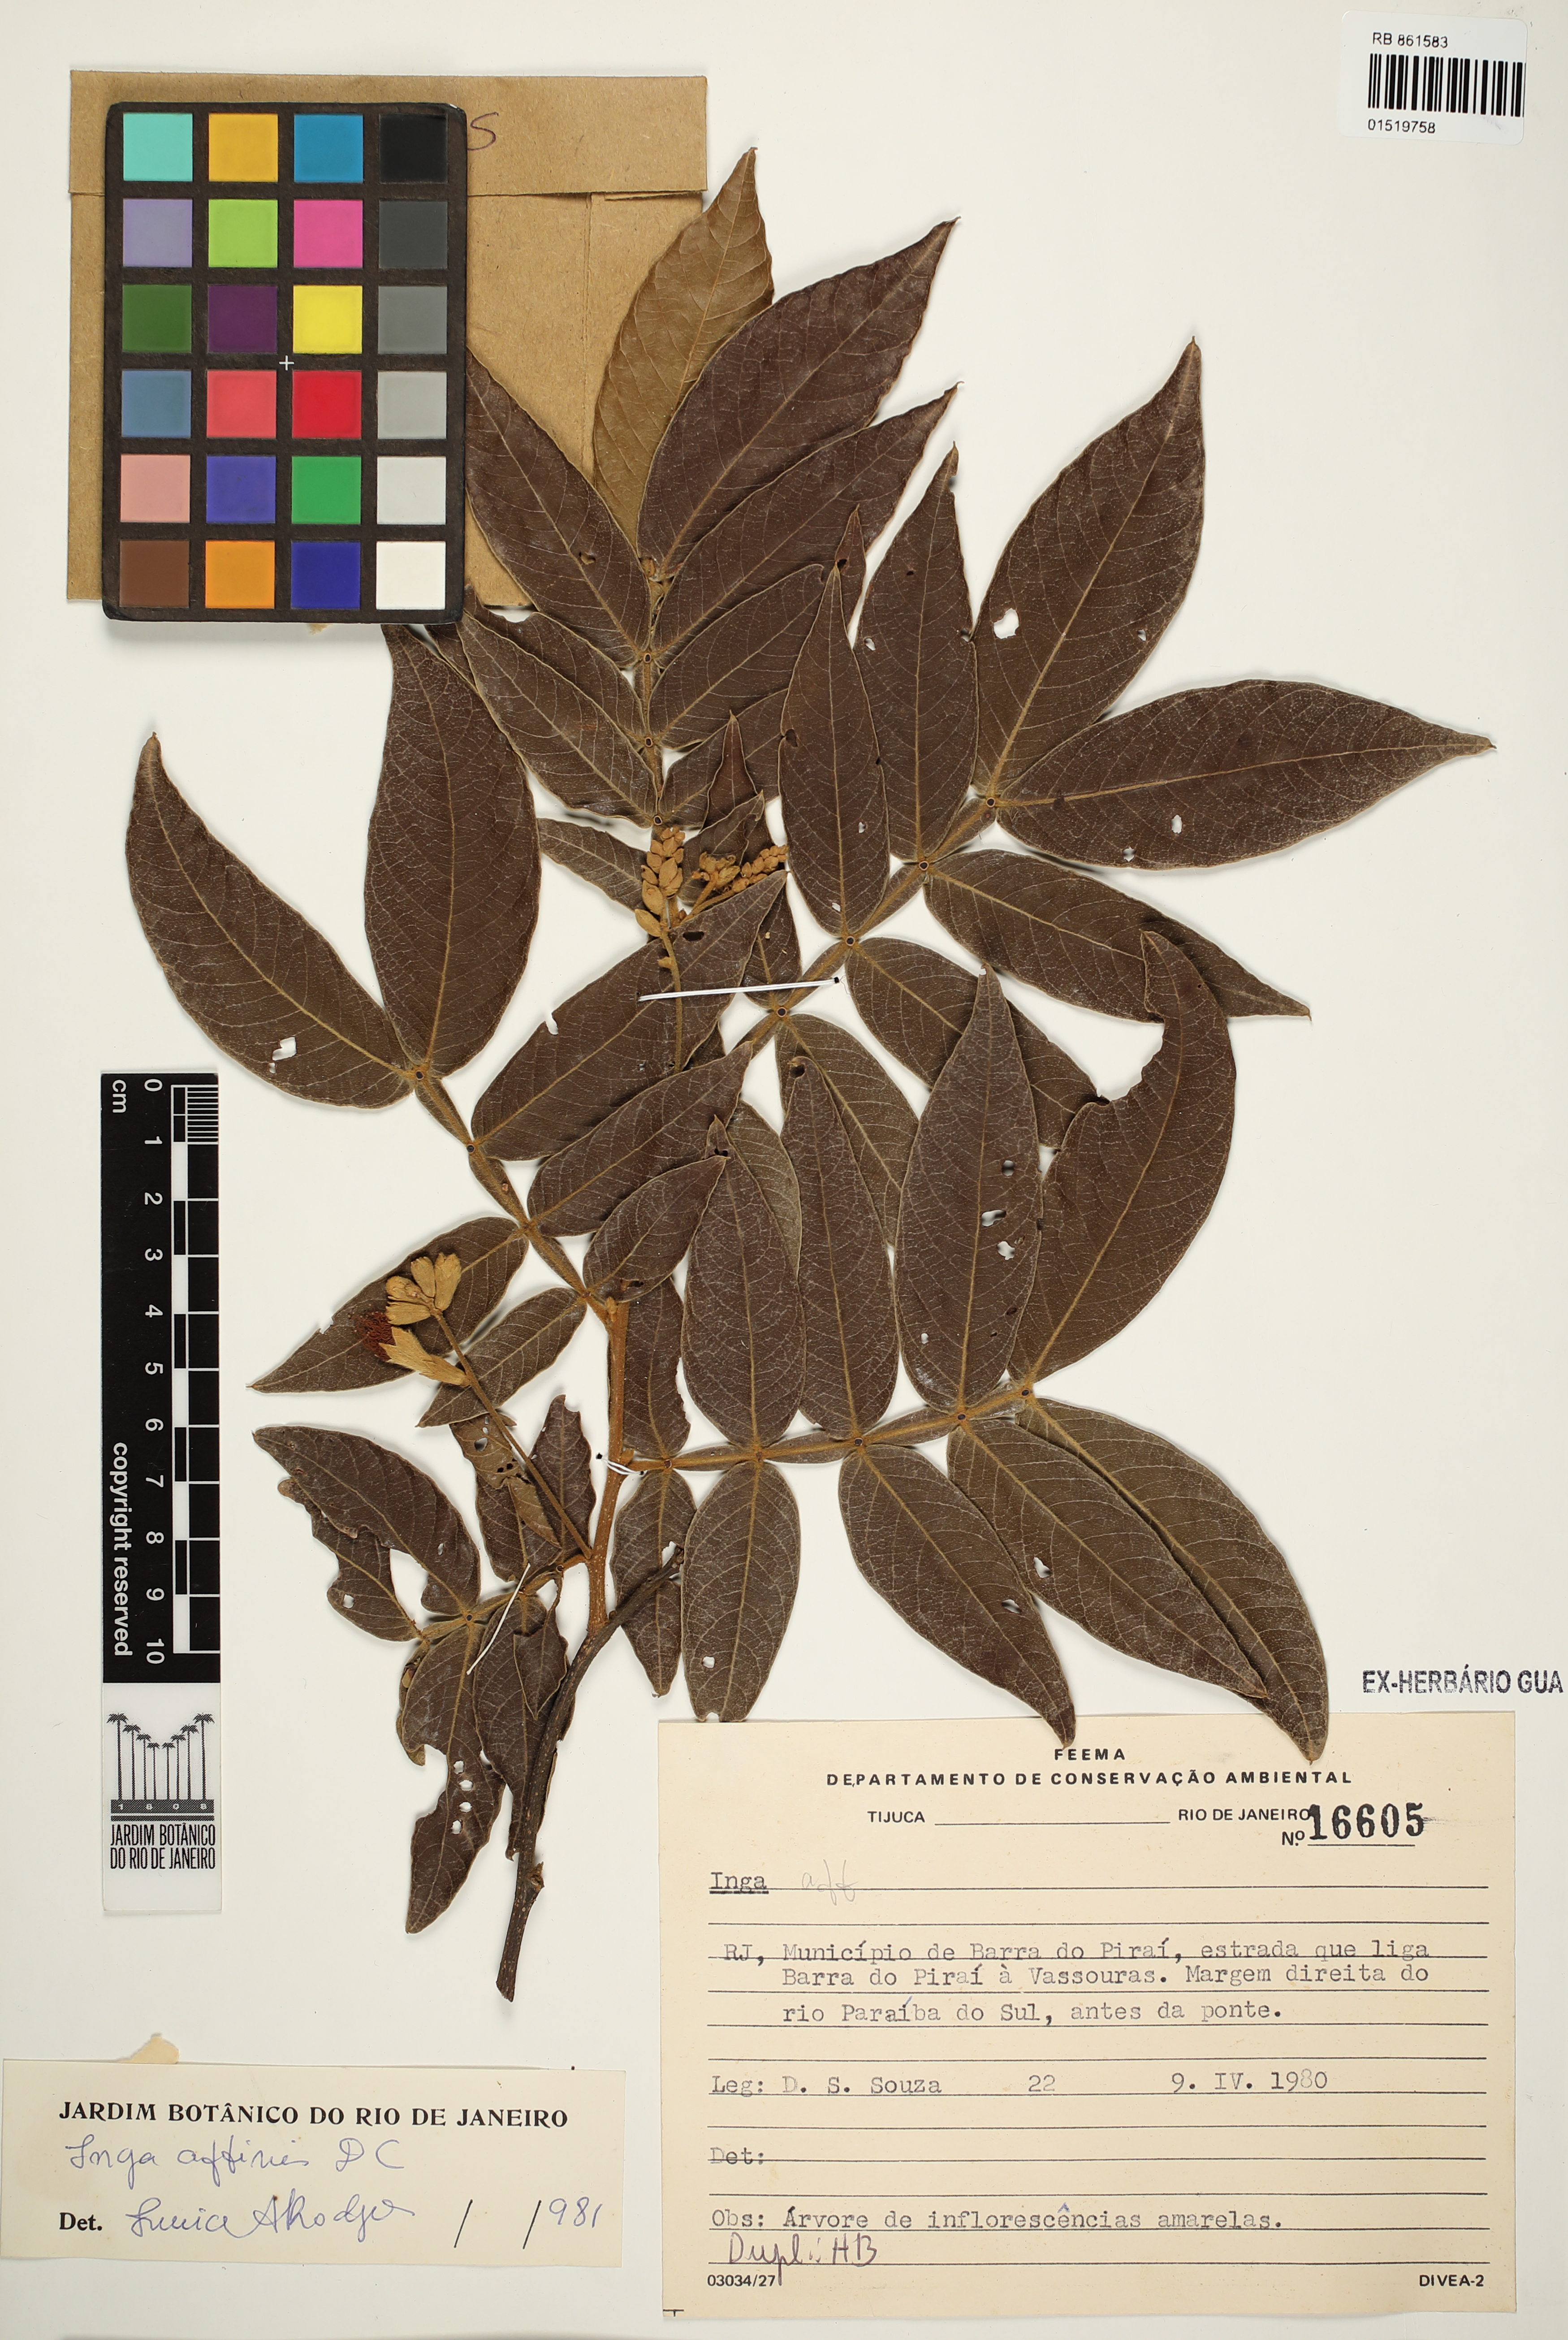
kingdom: Plantae
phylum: Tracheophyta
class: Magnoliopsida
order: Fabales
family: Fabaceae
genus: Inga
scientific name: Inga affinis
